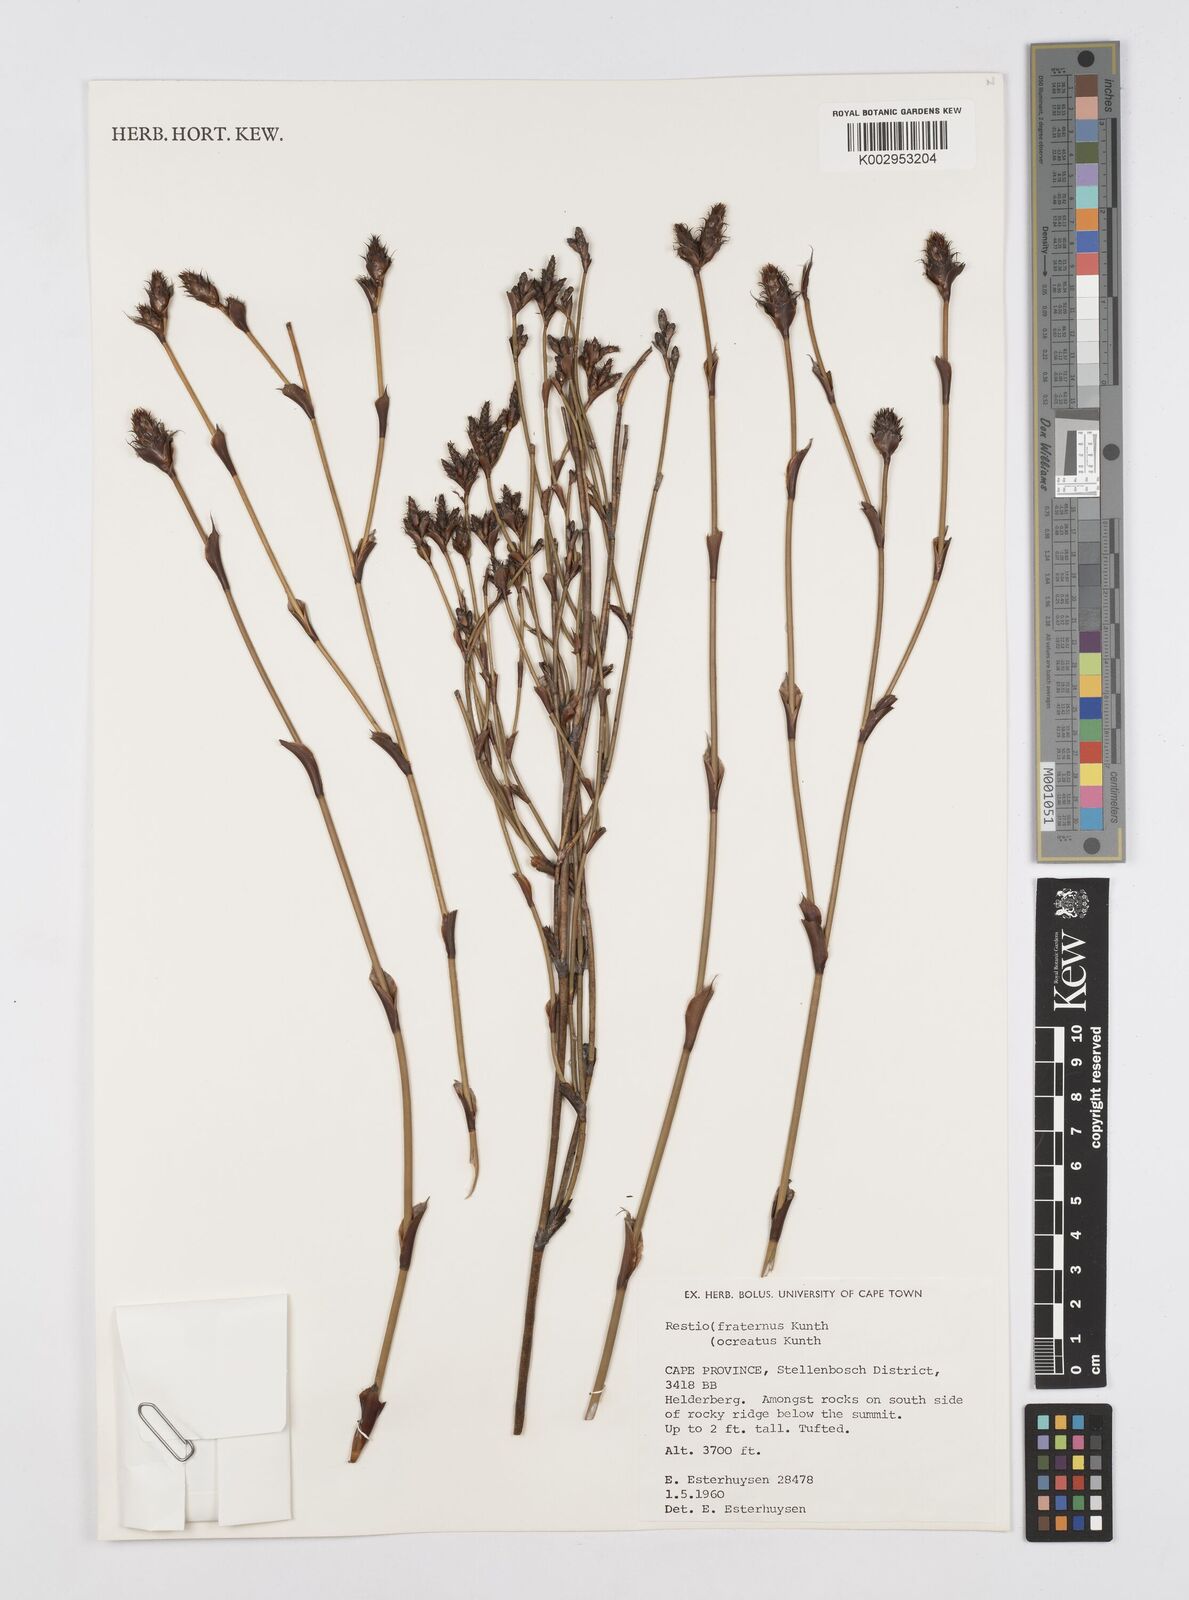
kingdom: Plantae
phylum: Tracheophyta
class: Liliopsida
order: Poales
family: Restionaceae
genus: Restio
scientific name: Restio fraternus
